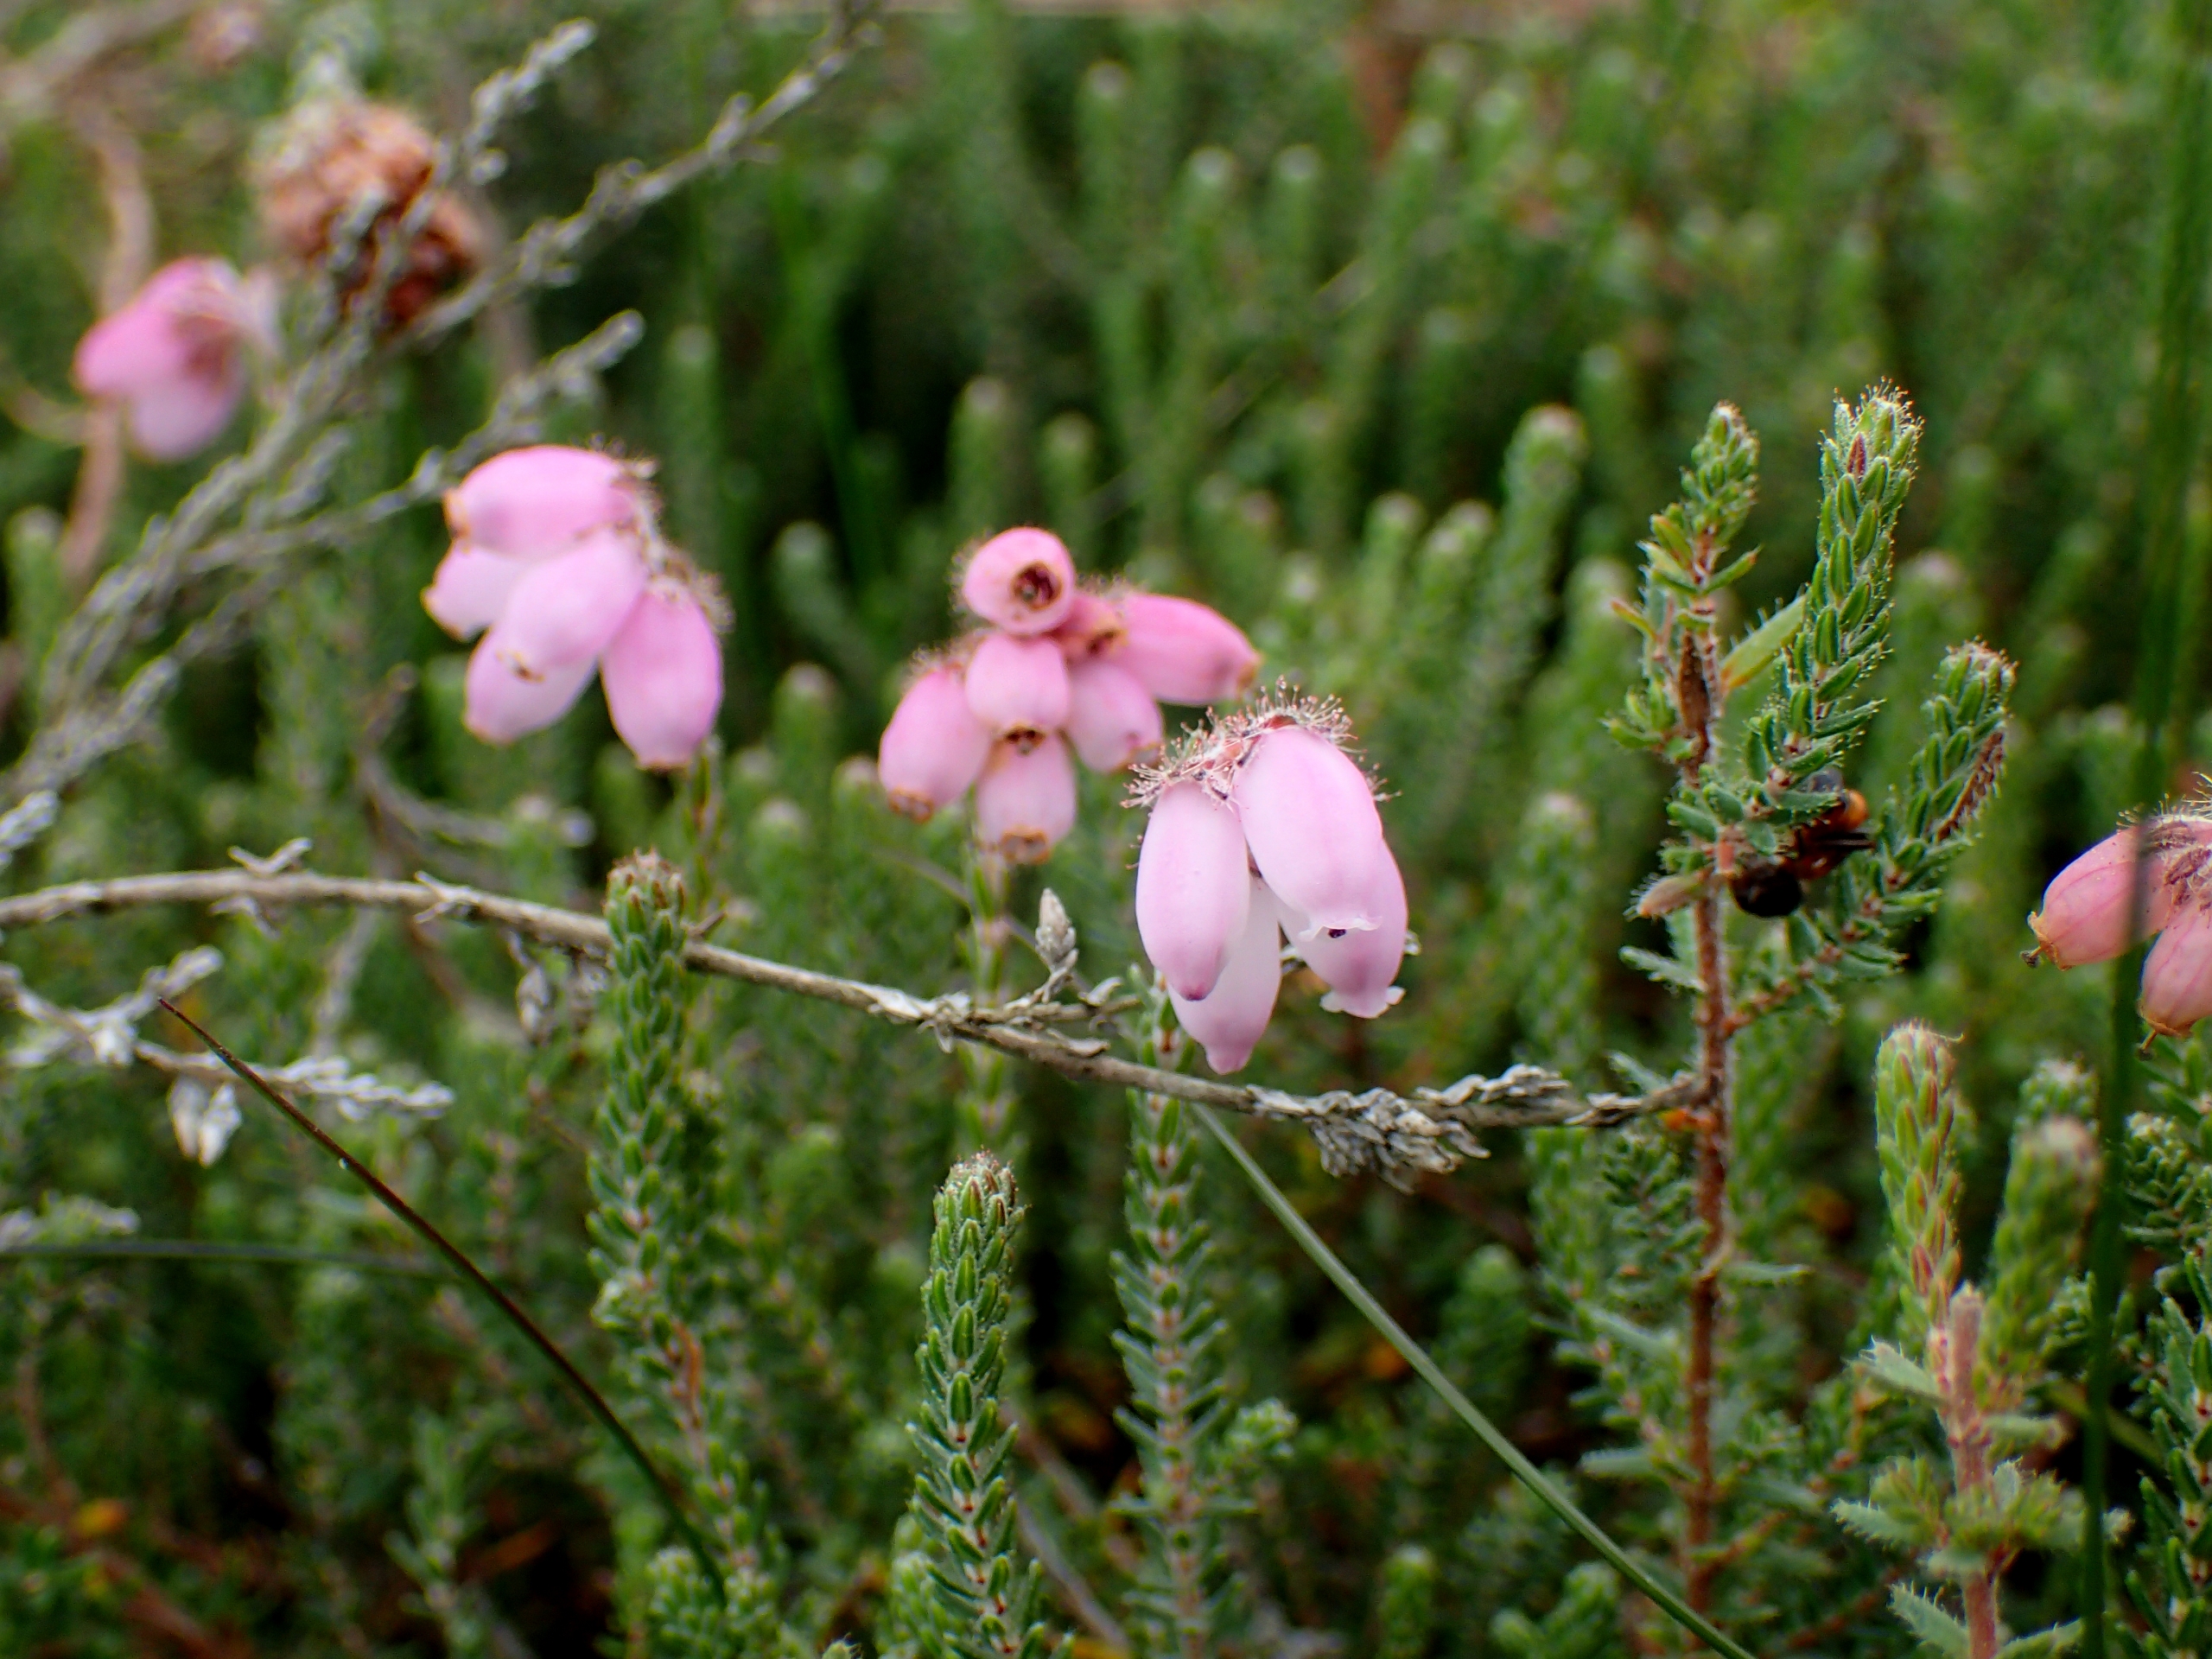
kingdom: Plantae
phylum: Tracheophyta
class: Magnoliopsida
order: Ericales
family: Ericaceae
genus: Erica
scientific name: Erica tetralix
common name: Klokkelyng
